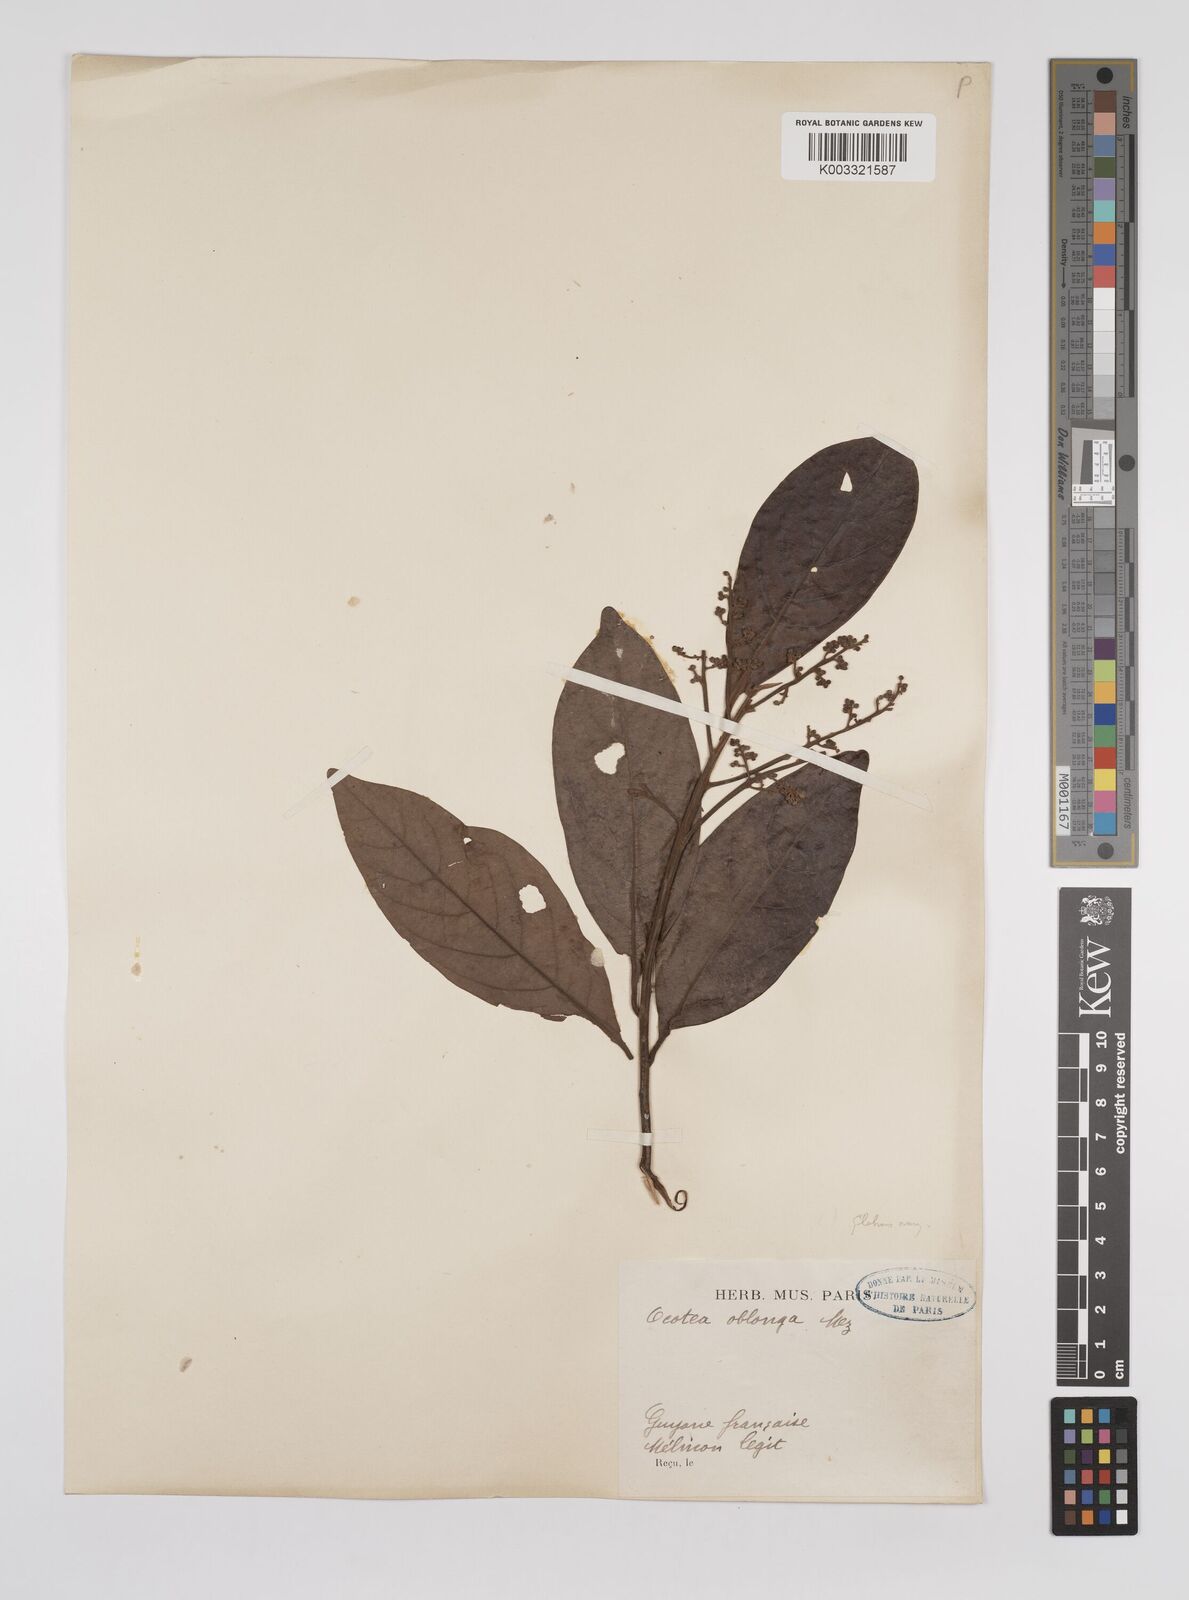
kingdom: Plantae
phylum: Tracheophyta
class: Magnoliopsida
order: Laurales
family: Lauraceae
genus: Ocotea
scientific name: Ocotea oblonga
